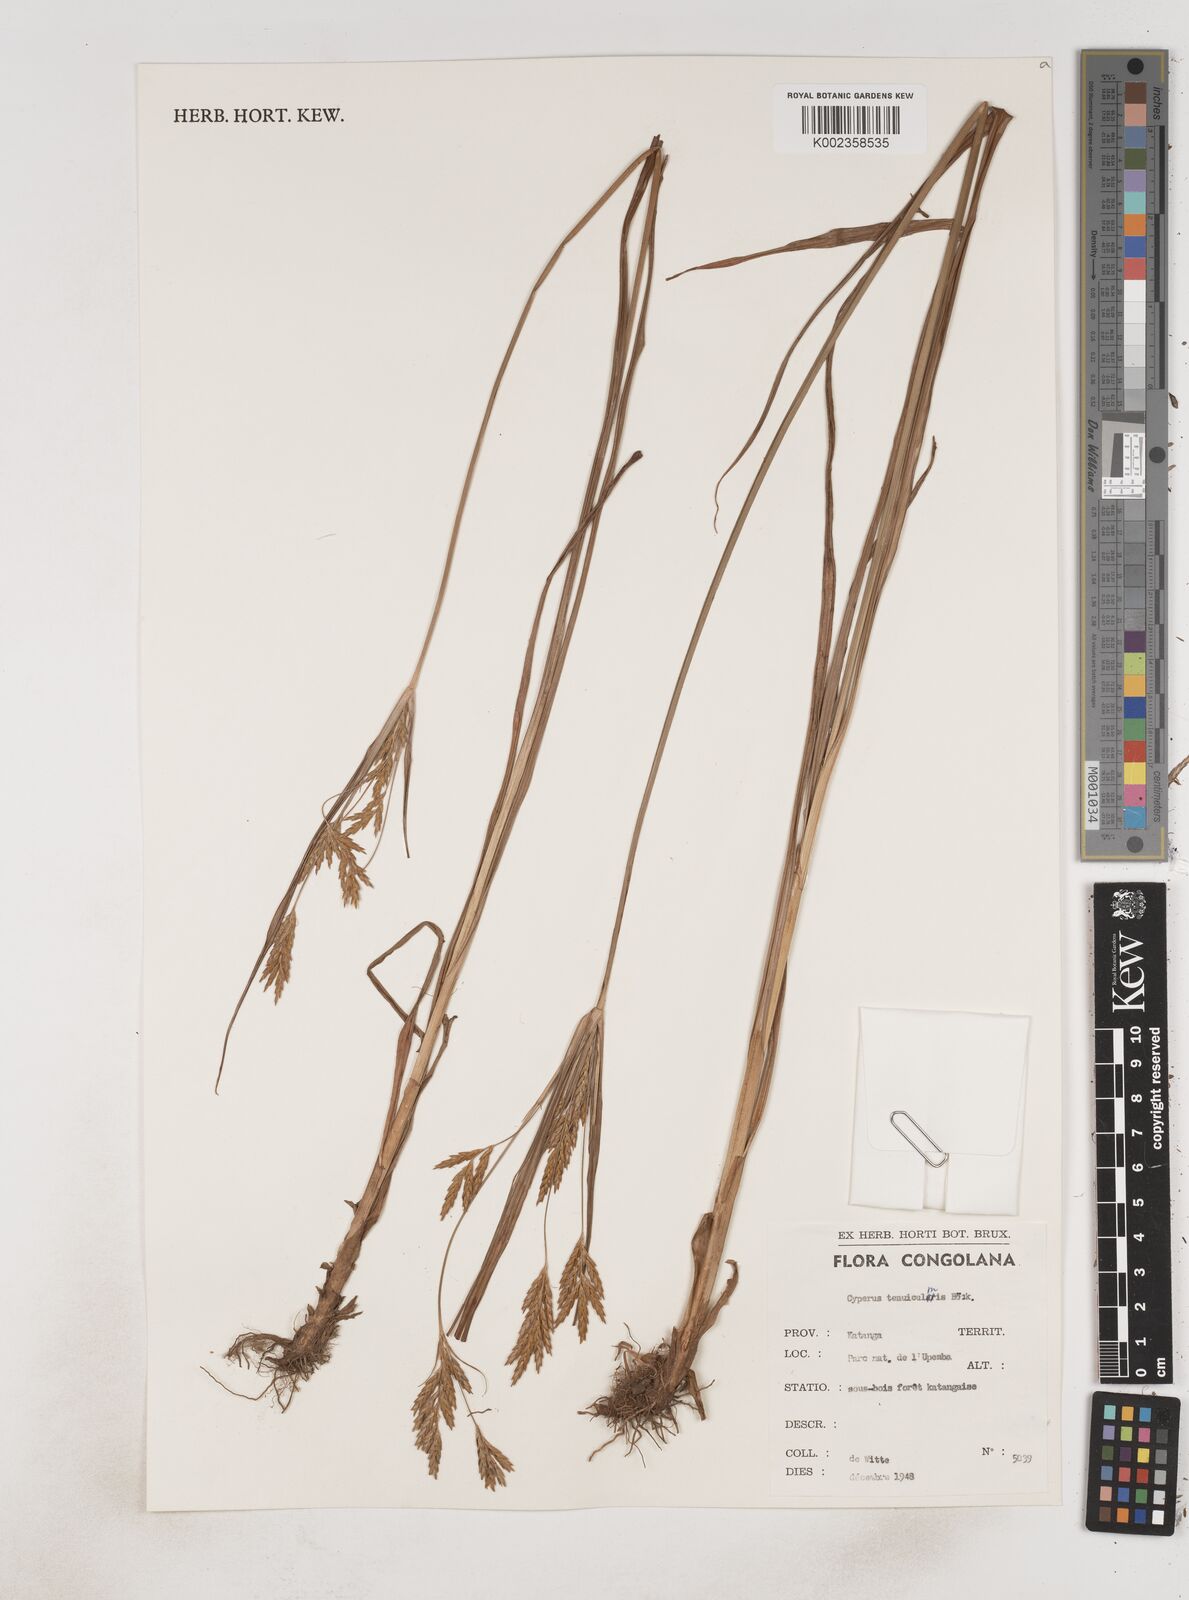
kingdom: Plantae
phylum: Tracheophyta
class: Liliopsida
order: Poales
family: Cyperaceae
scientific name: Cyperaceae
